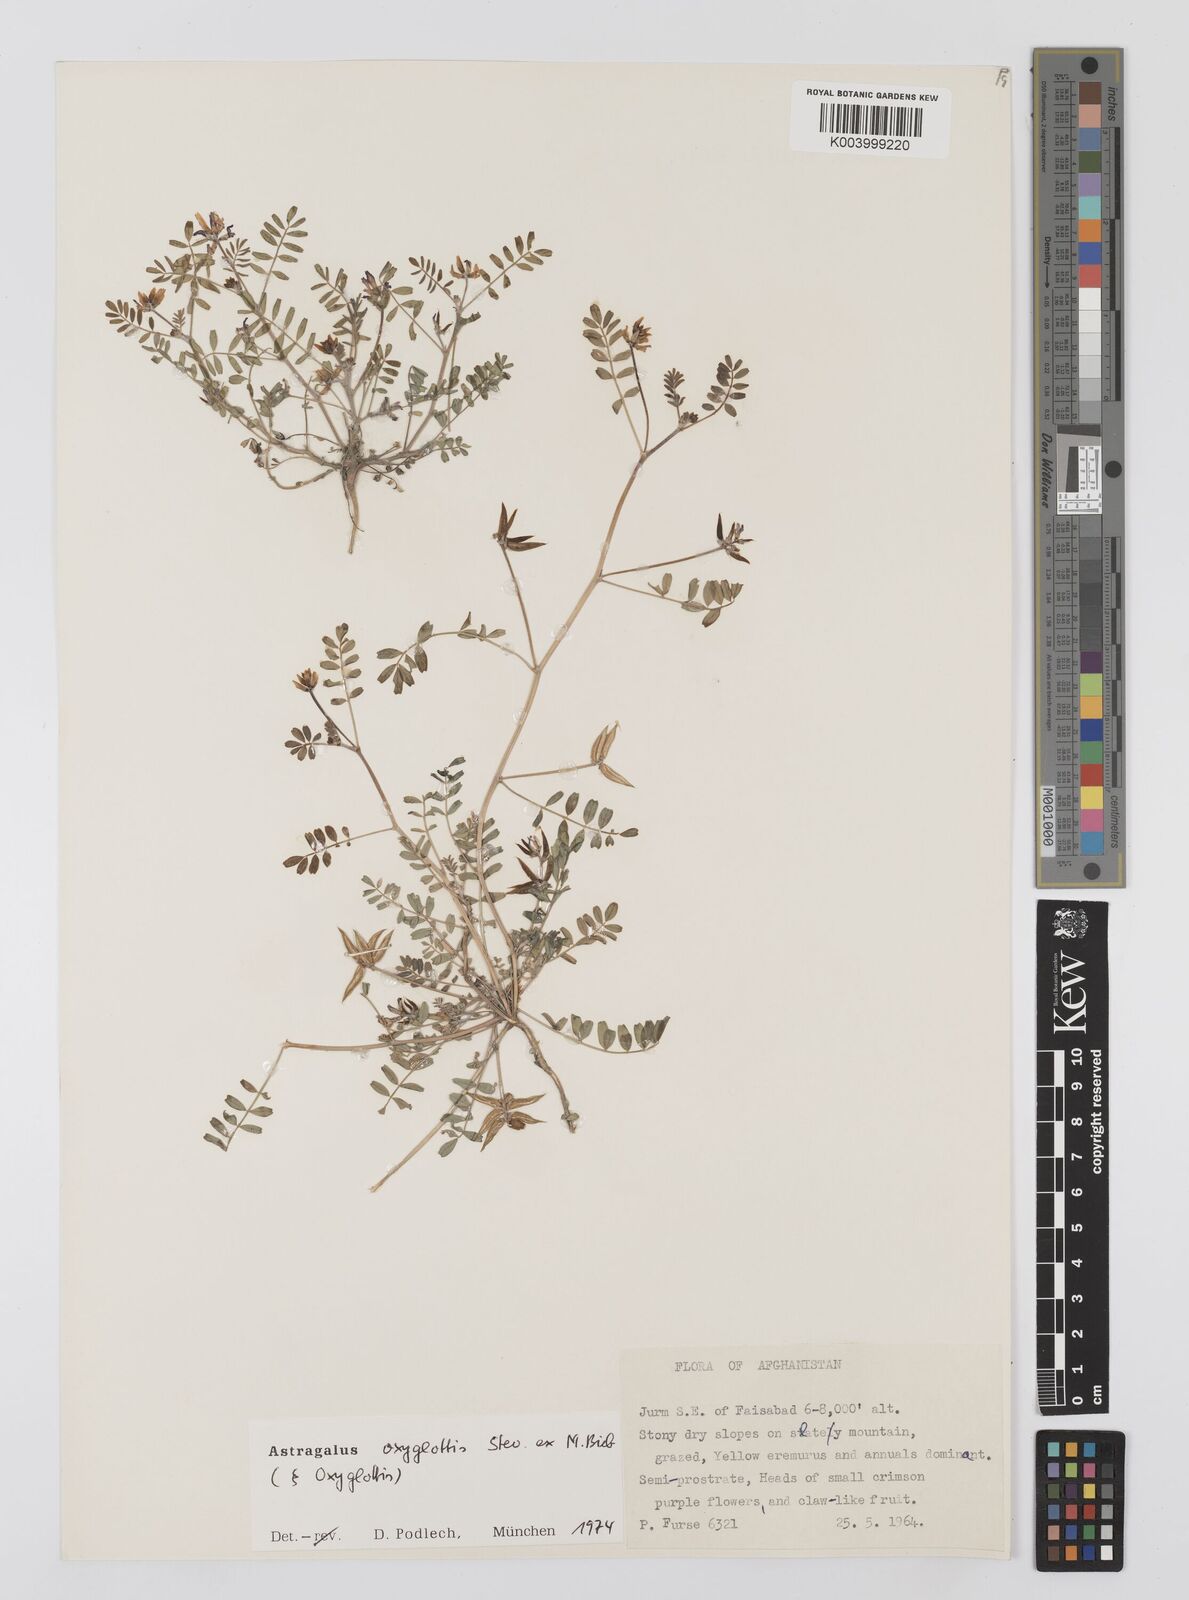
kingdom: Plantae
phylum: Tracheophyta
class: Magnoliopsida
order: Fabales
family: Fabaceae
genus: Astragalus
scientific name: Astragalus oxyglottis
